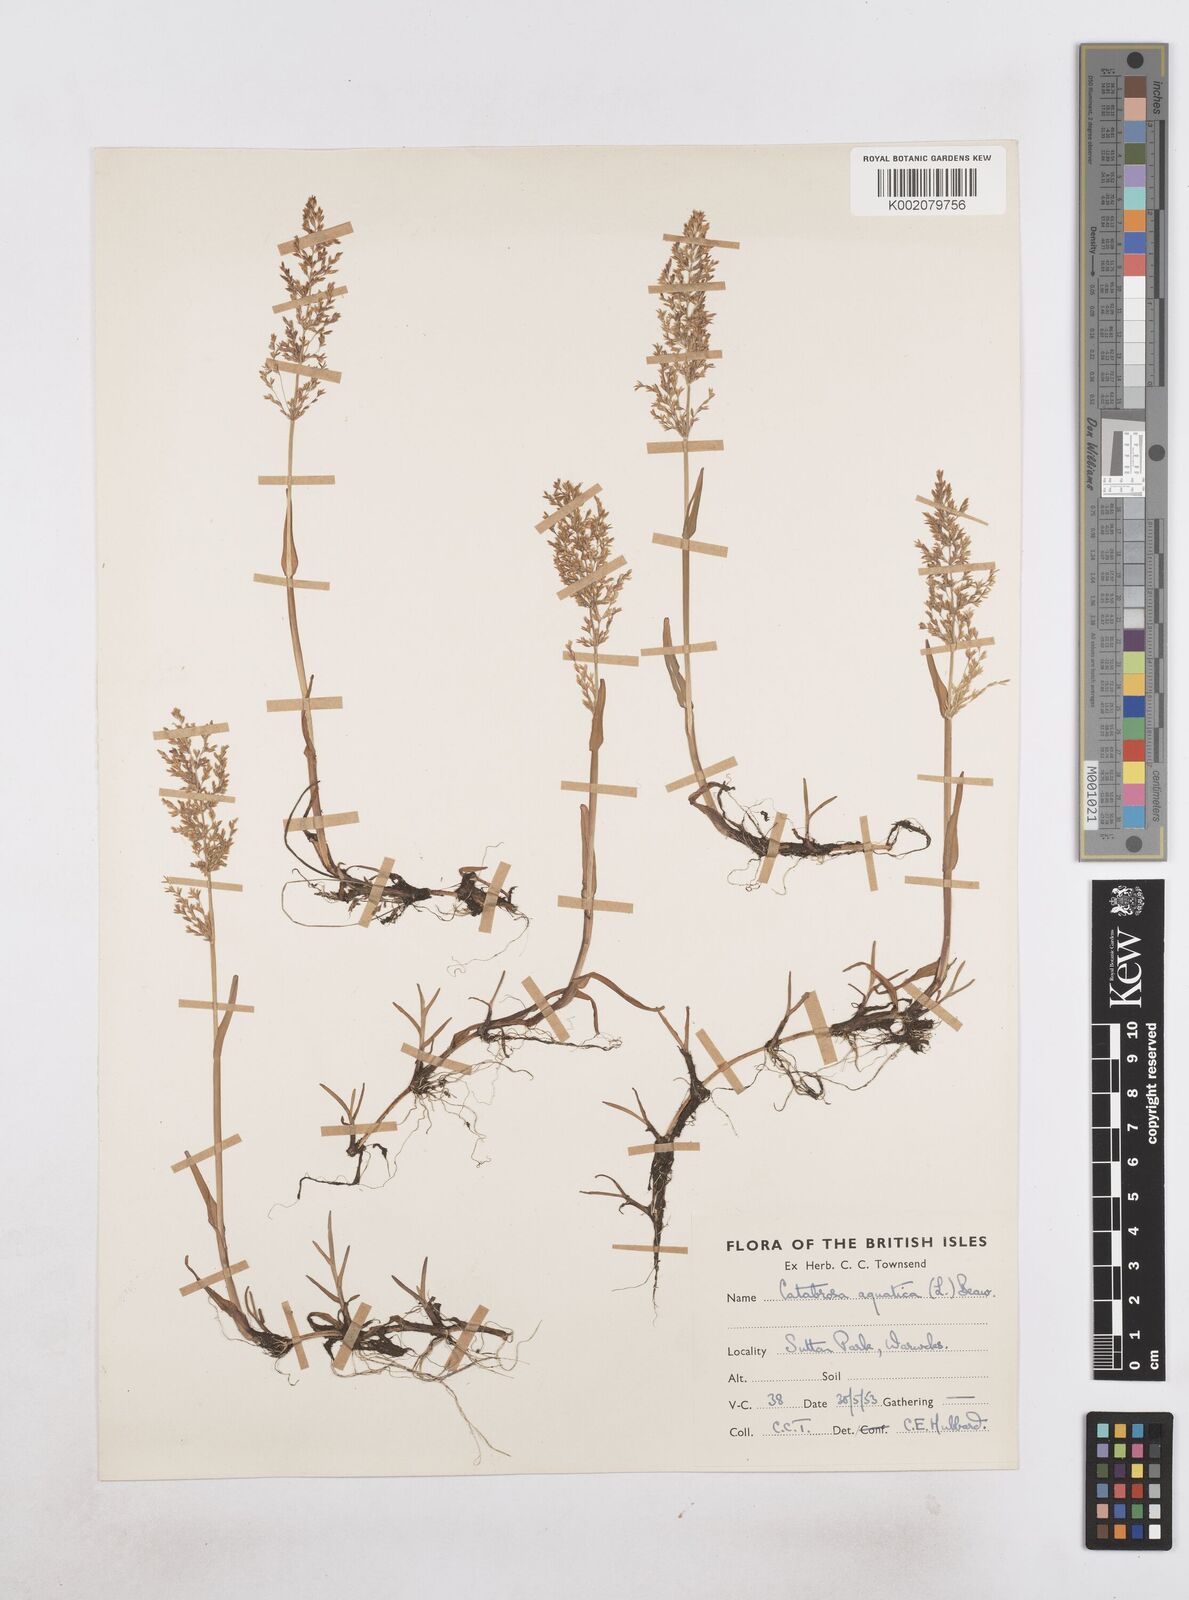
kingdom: Plantae
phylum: Tracheophyta
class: Liliopsida
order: Poales
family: Poaceae
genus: Catabrosa
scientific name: Catabrosa aquatica
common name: Whorl-grass
